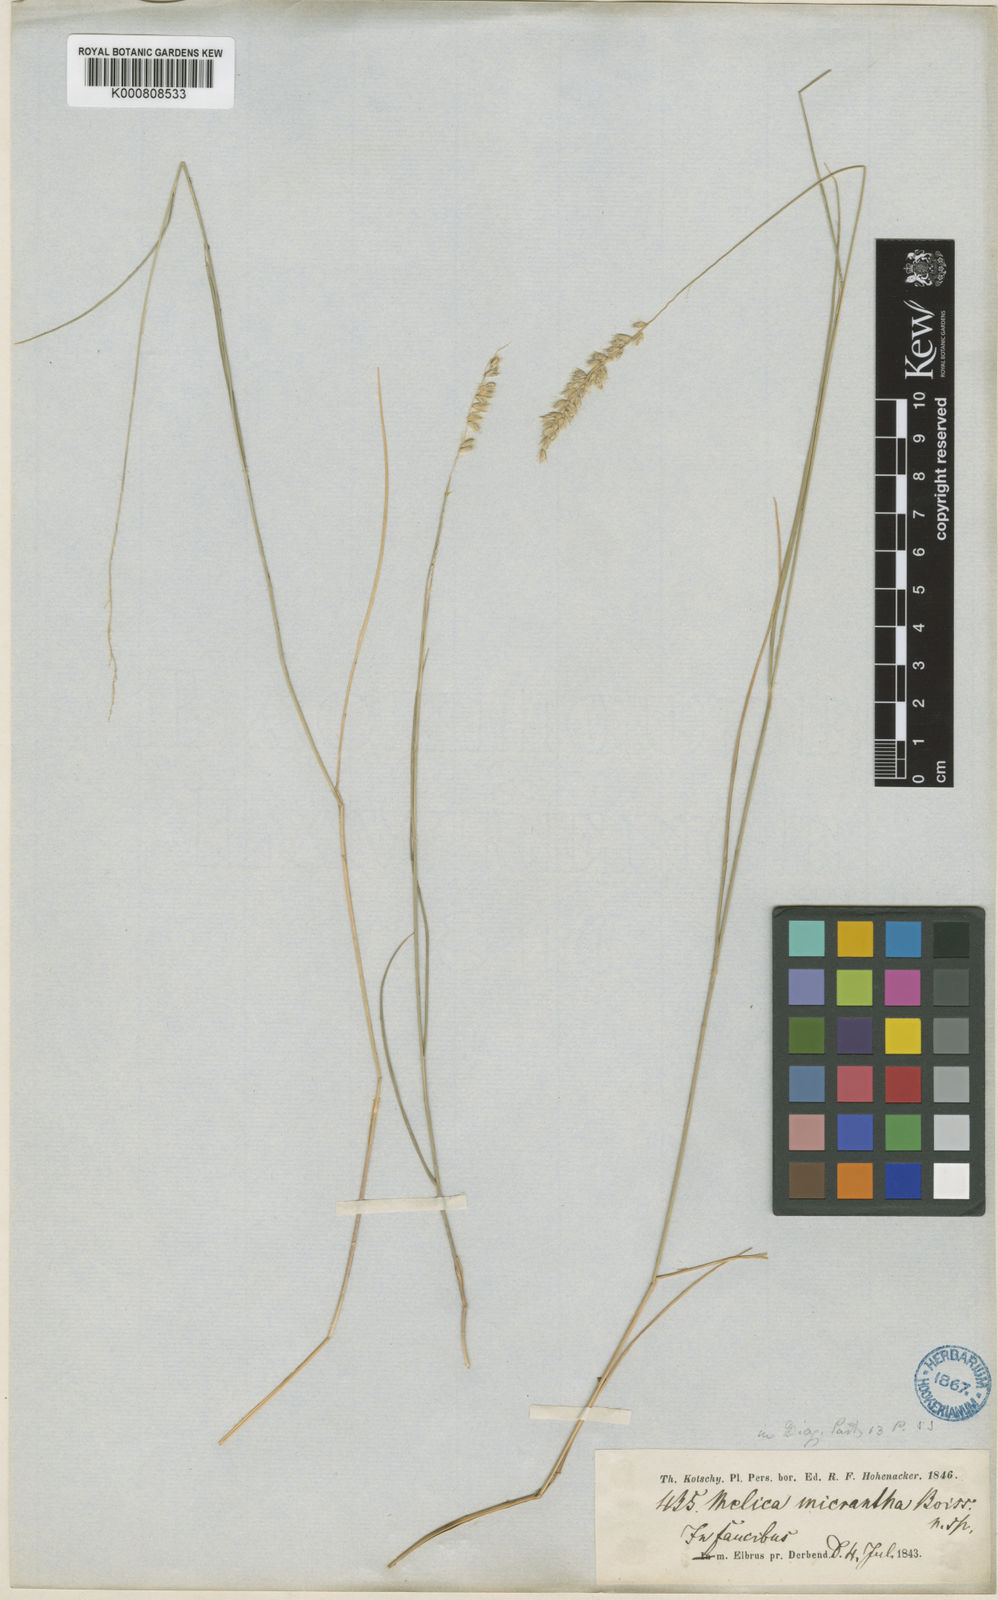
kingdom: Plantae
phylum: Tracheophyta
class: Liliopsida
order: Poales
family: Poaceae
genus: Melica
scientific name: Melica ciliata
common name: Hairy melicgrass
